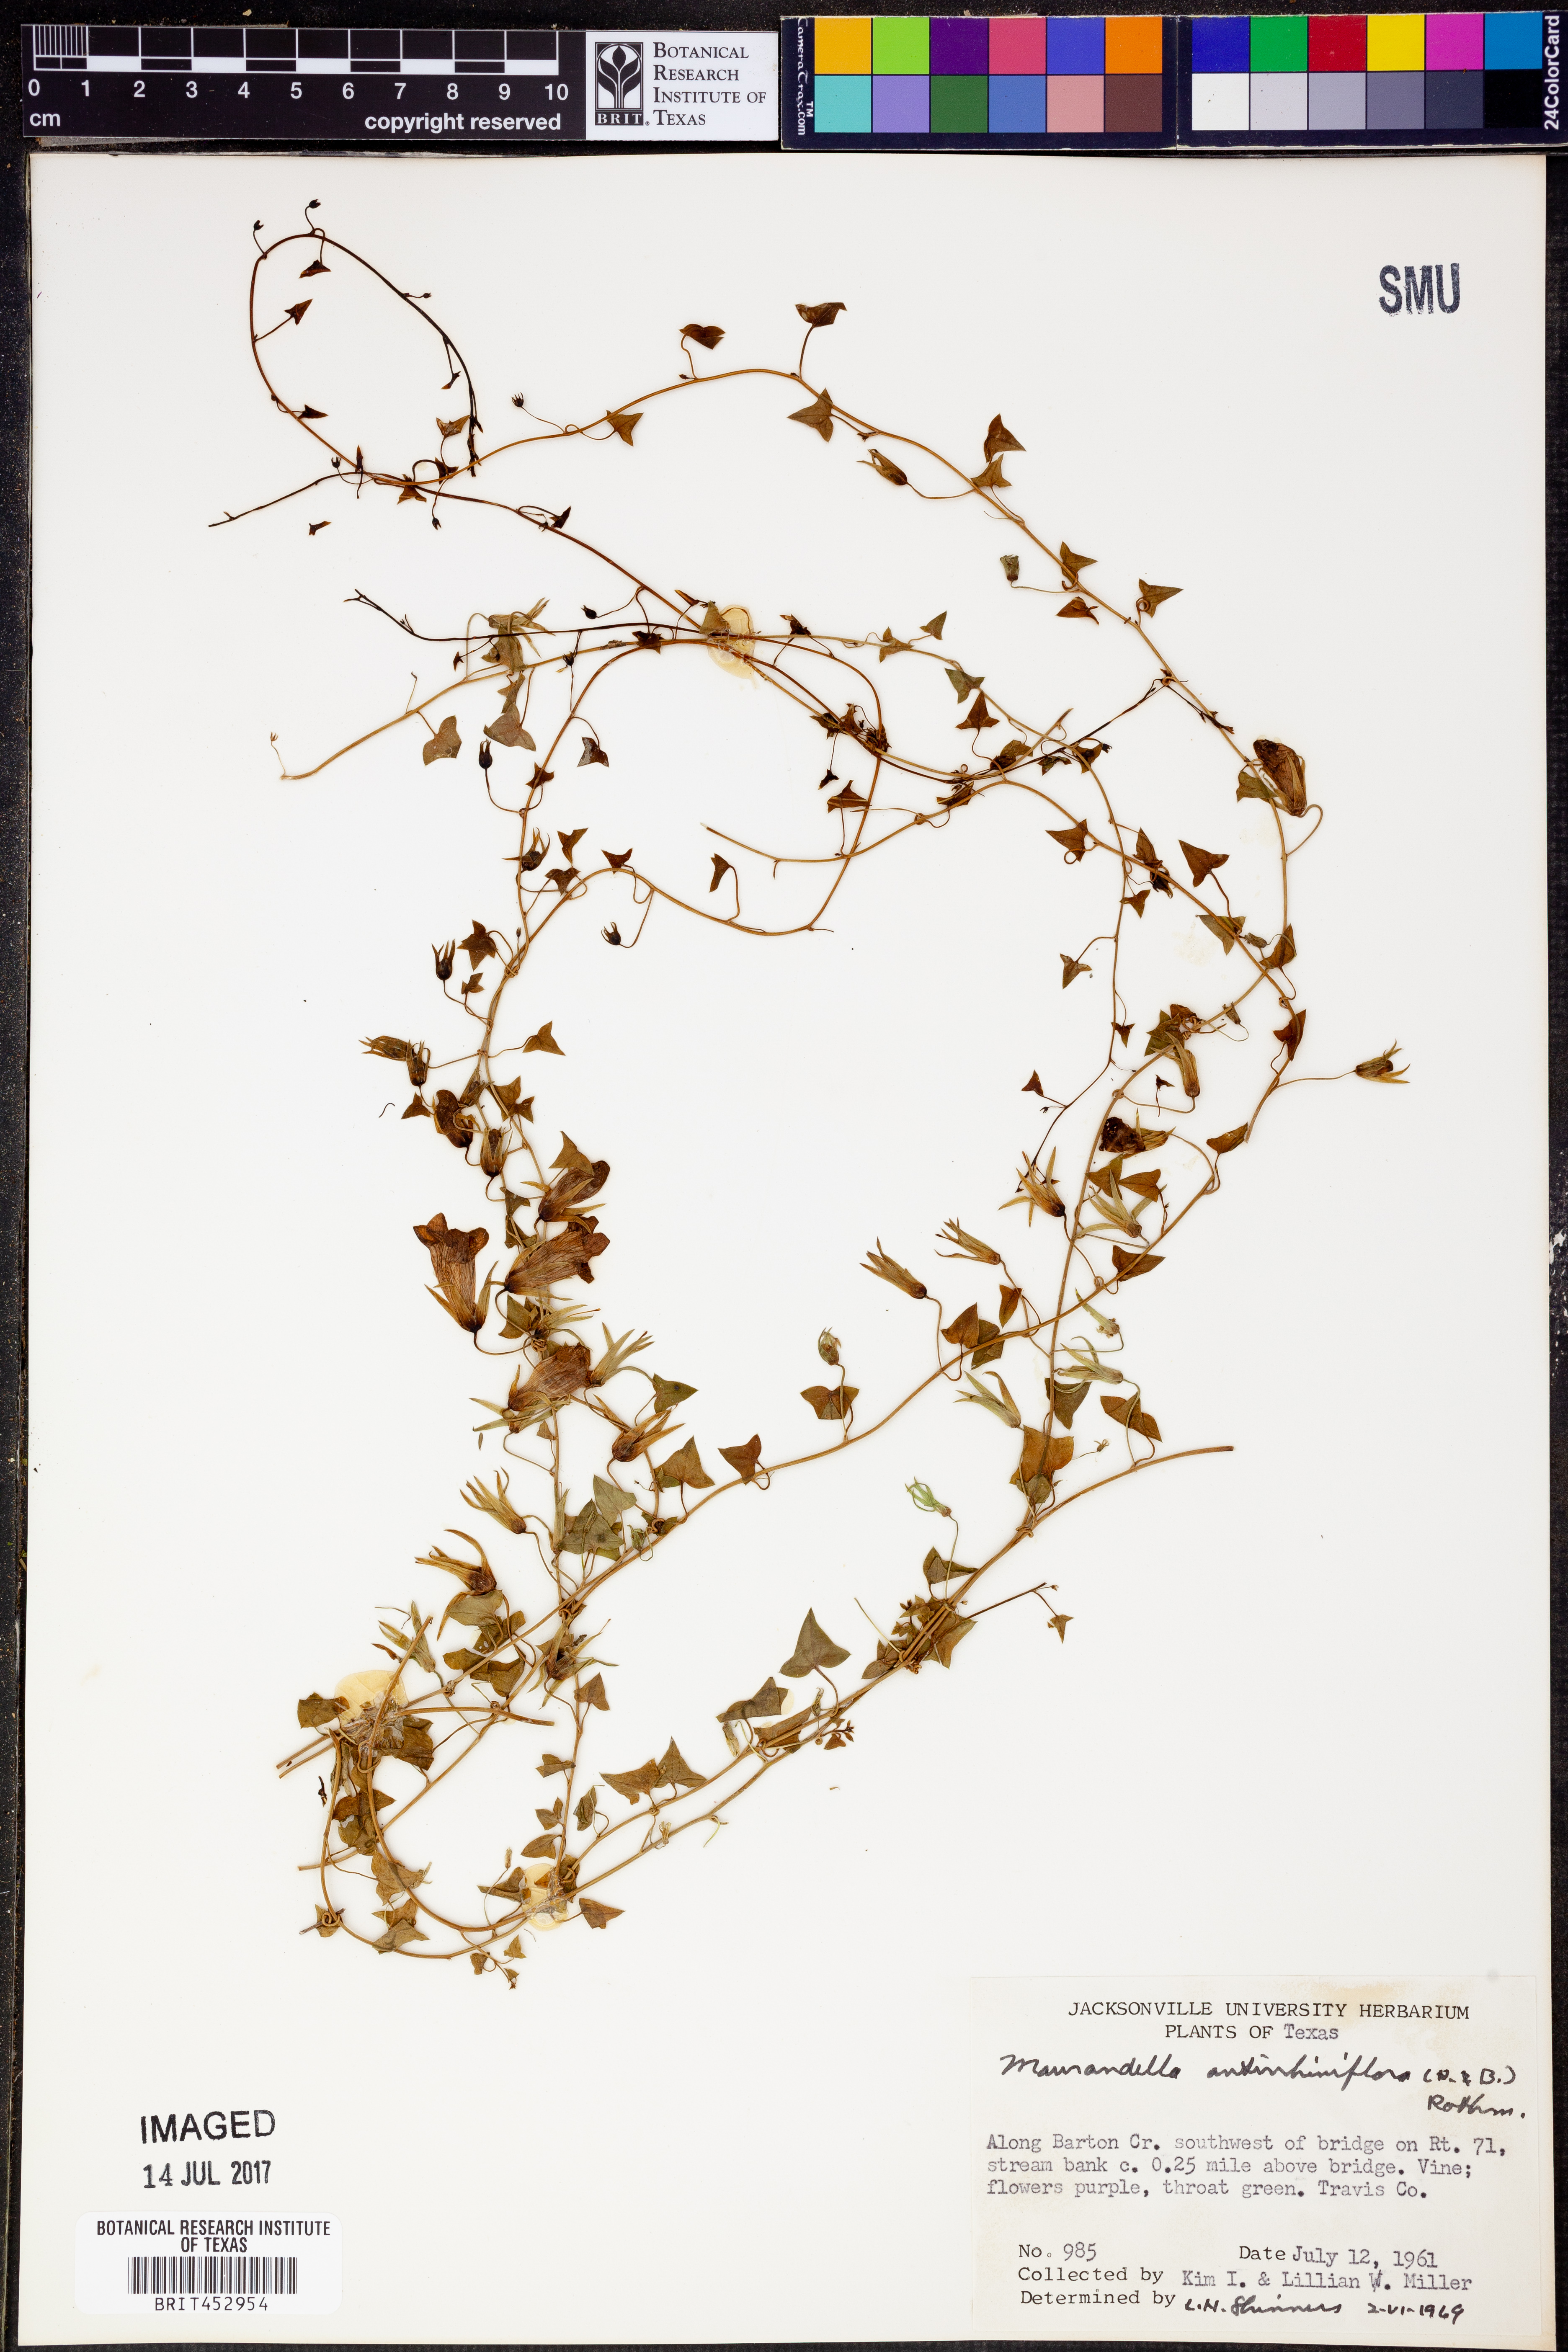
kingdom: Plantae
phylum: Tracheophyta
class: Magnoliopsida
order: Lamiales
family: Plantaginaceae
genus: Maurandella
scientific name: Maurandella antirrhiniflora
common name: Violet twining-snapdragon
